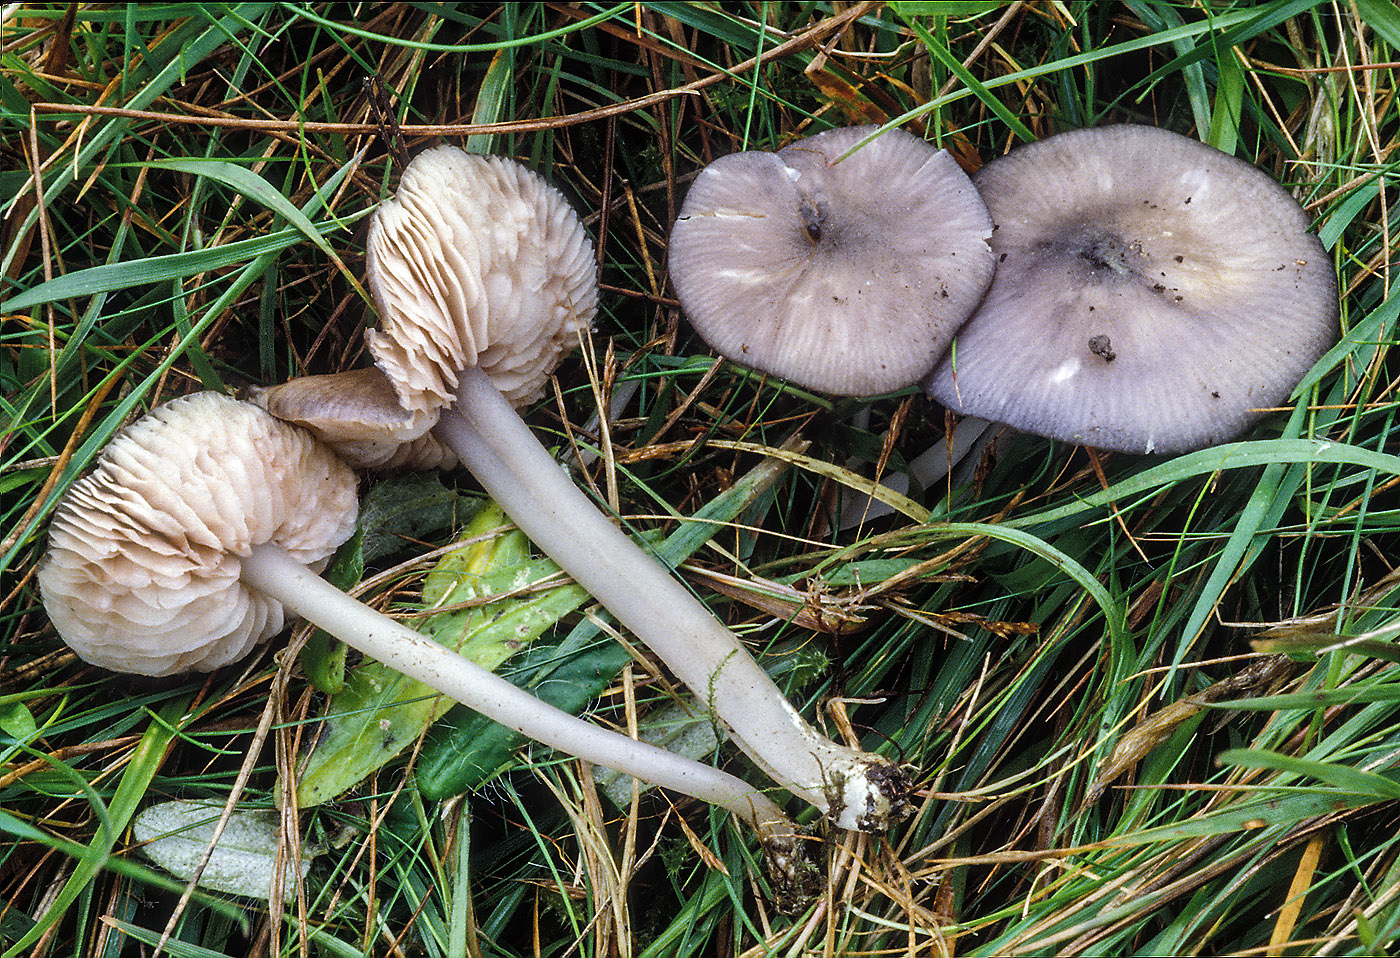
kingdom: Fungi
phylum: Basidiomycota
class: Agaricomycetes
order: Agaricales
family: Entolomataceae
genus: Entoloma
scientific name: Entoloma
